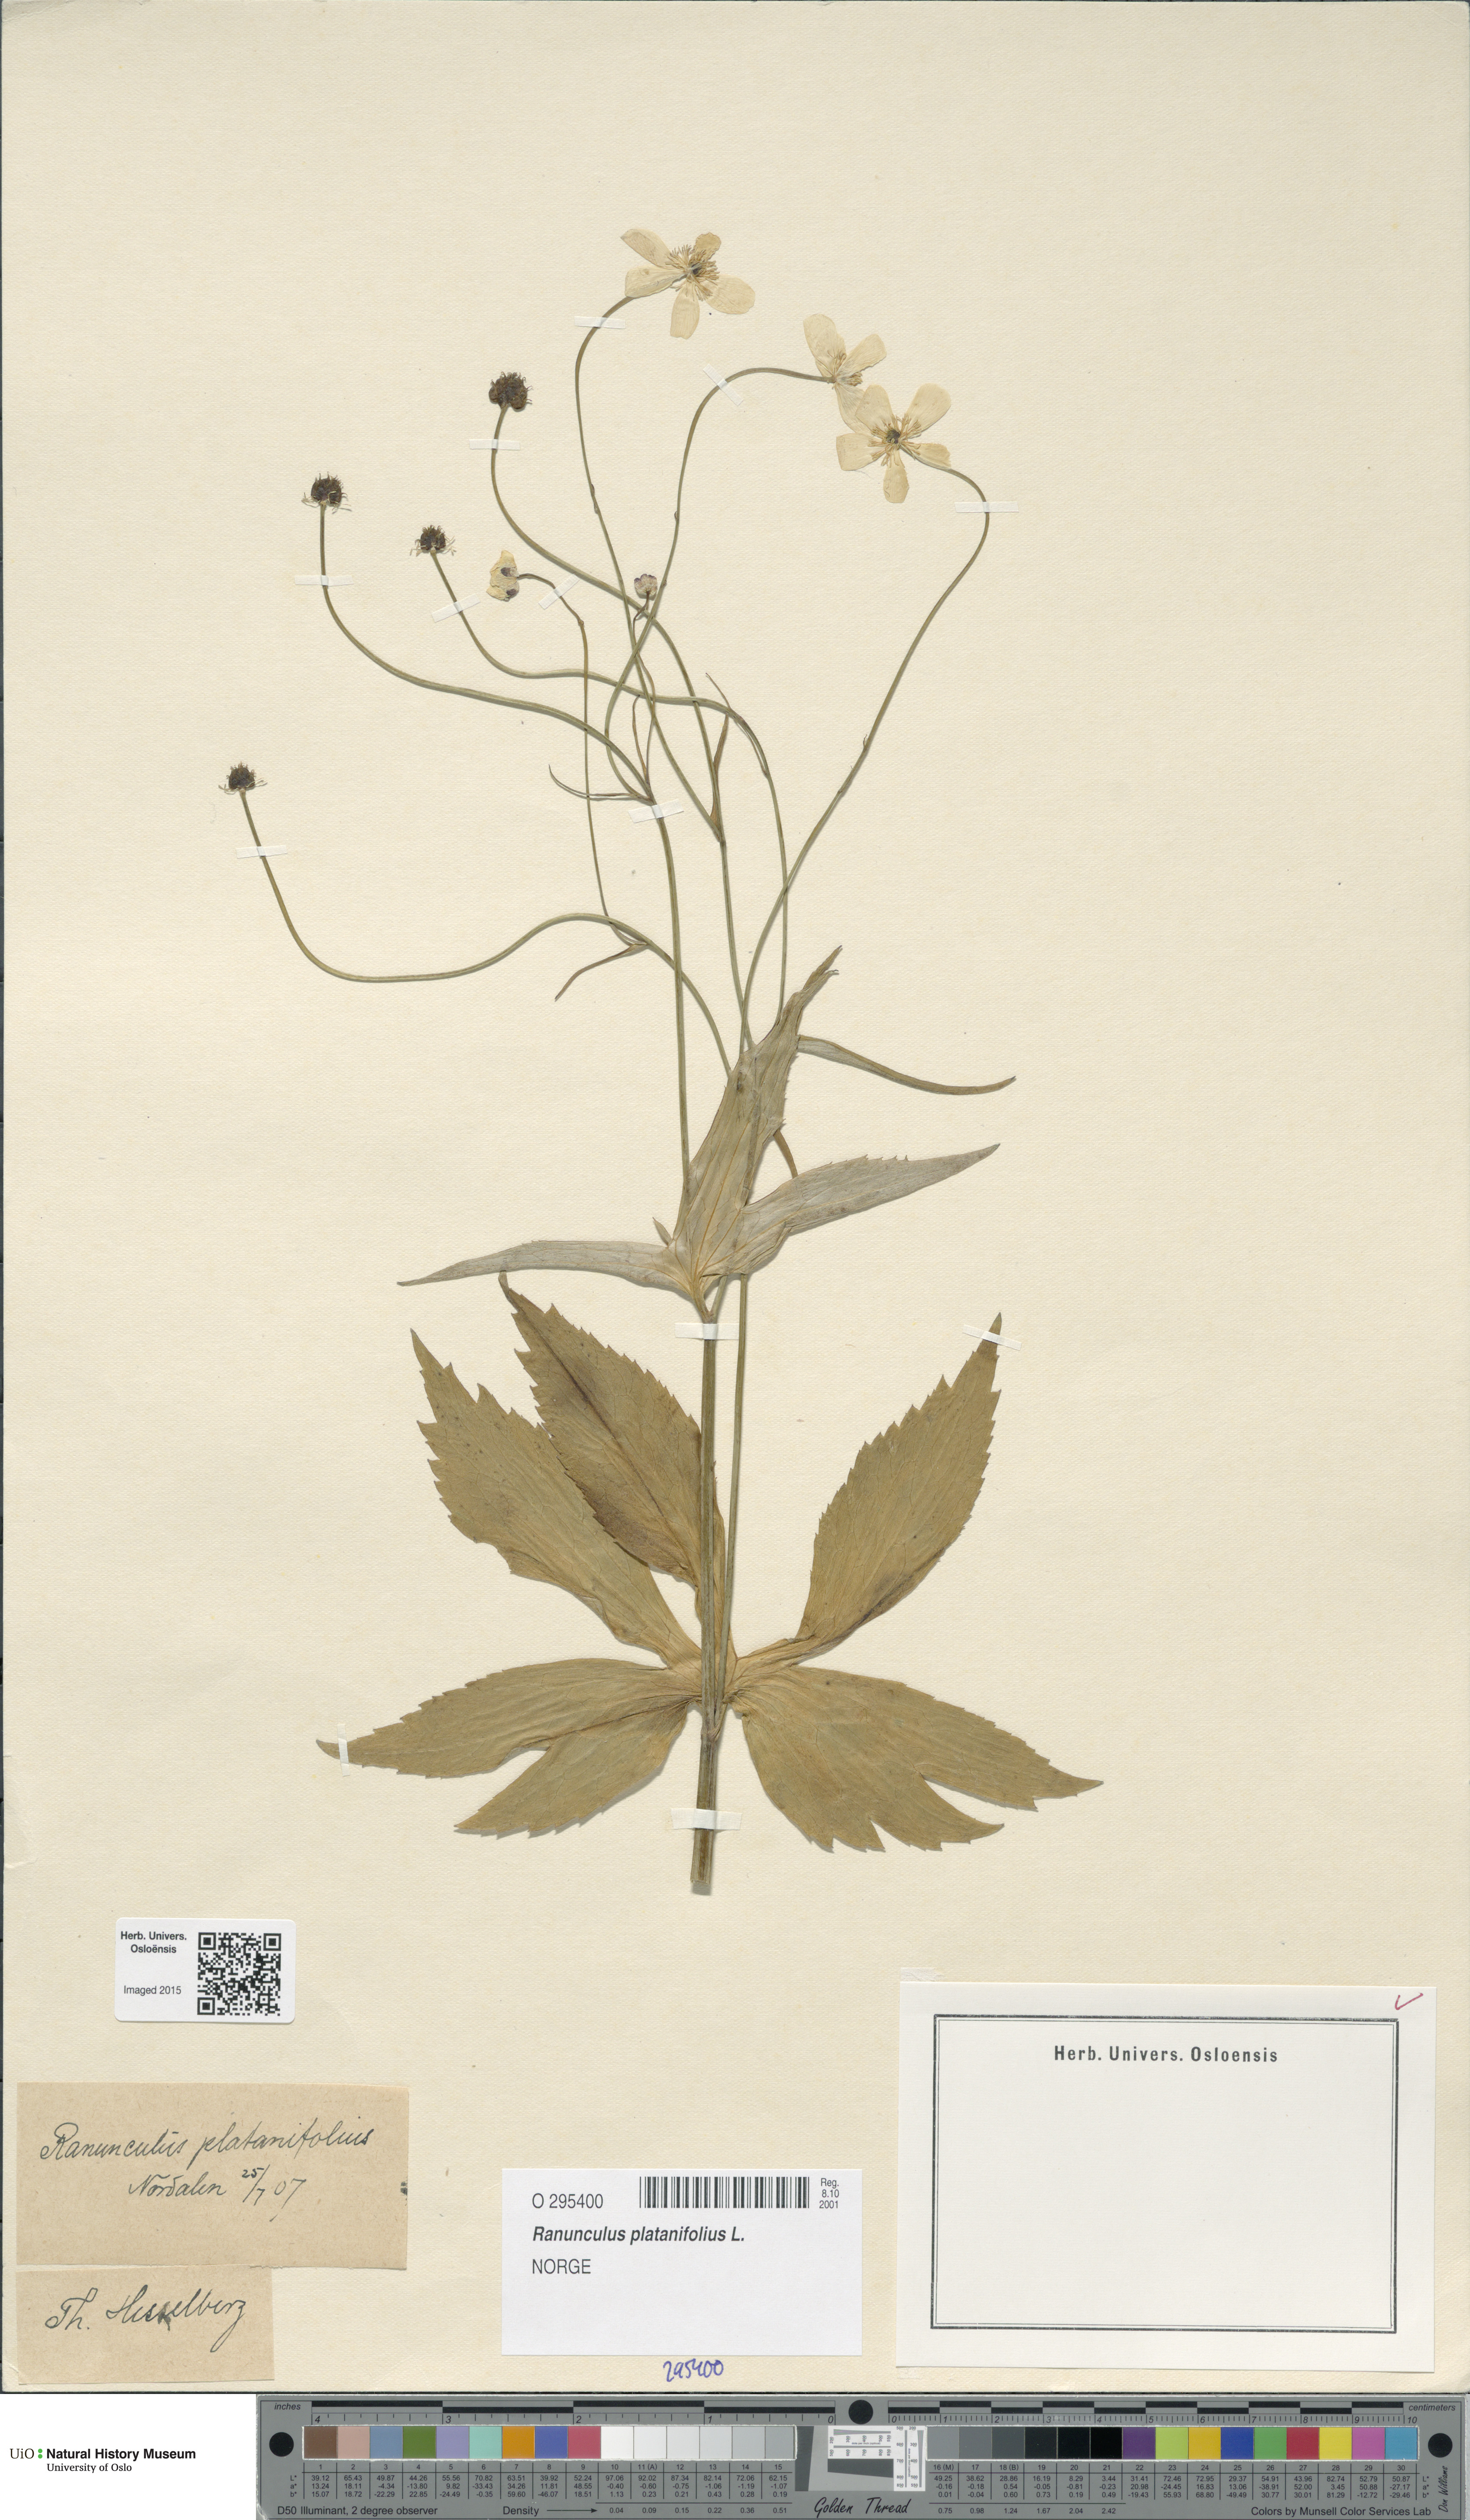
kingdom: Plantae
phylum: Tracheophyta
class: Magnoliopsida
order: Ranunculales
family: Ranunculaceae
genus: Ranunculus
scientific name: Ranunculus platanifolius
